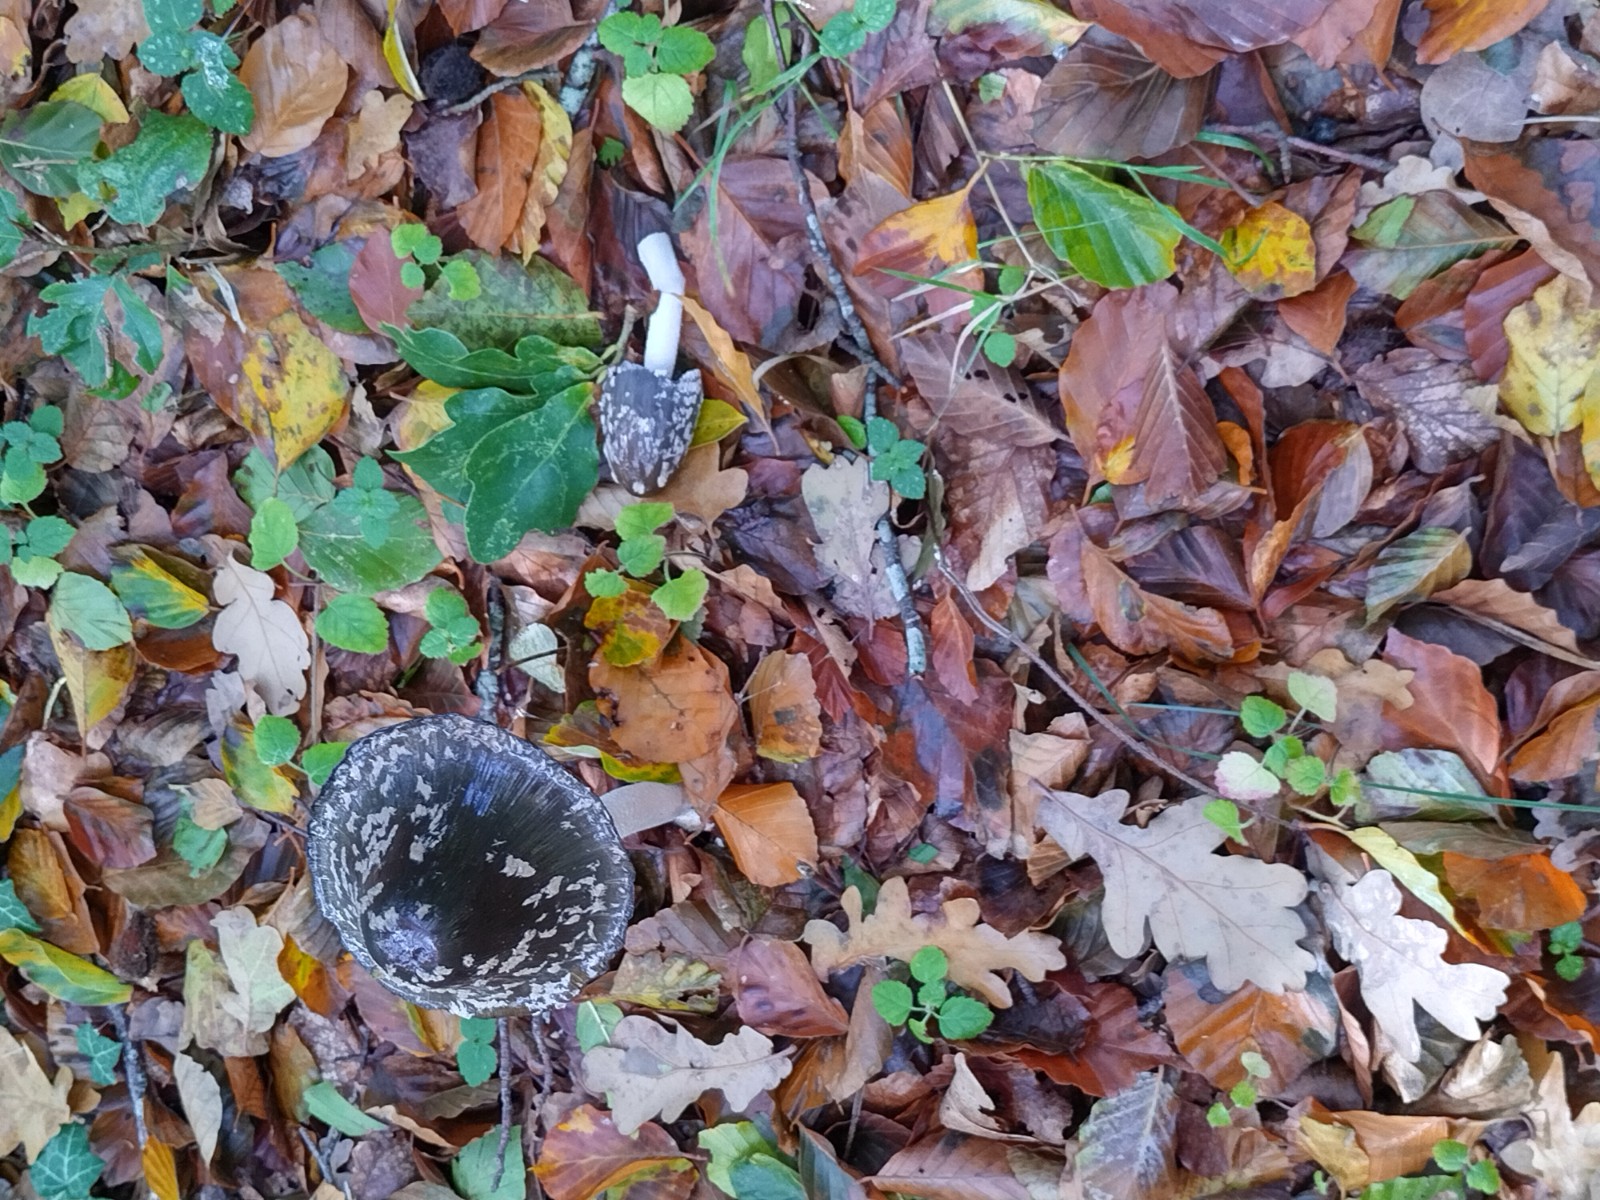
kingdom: Fungi
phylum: Basidiomycota
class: Agaricomycetes
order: Agaricales
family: Psathyrellaceae
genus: Coprinopsis
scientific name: Coprinopsis picacea
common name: skade-blækhat
